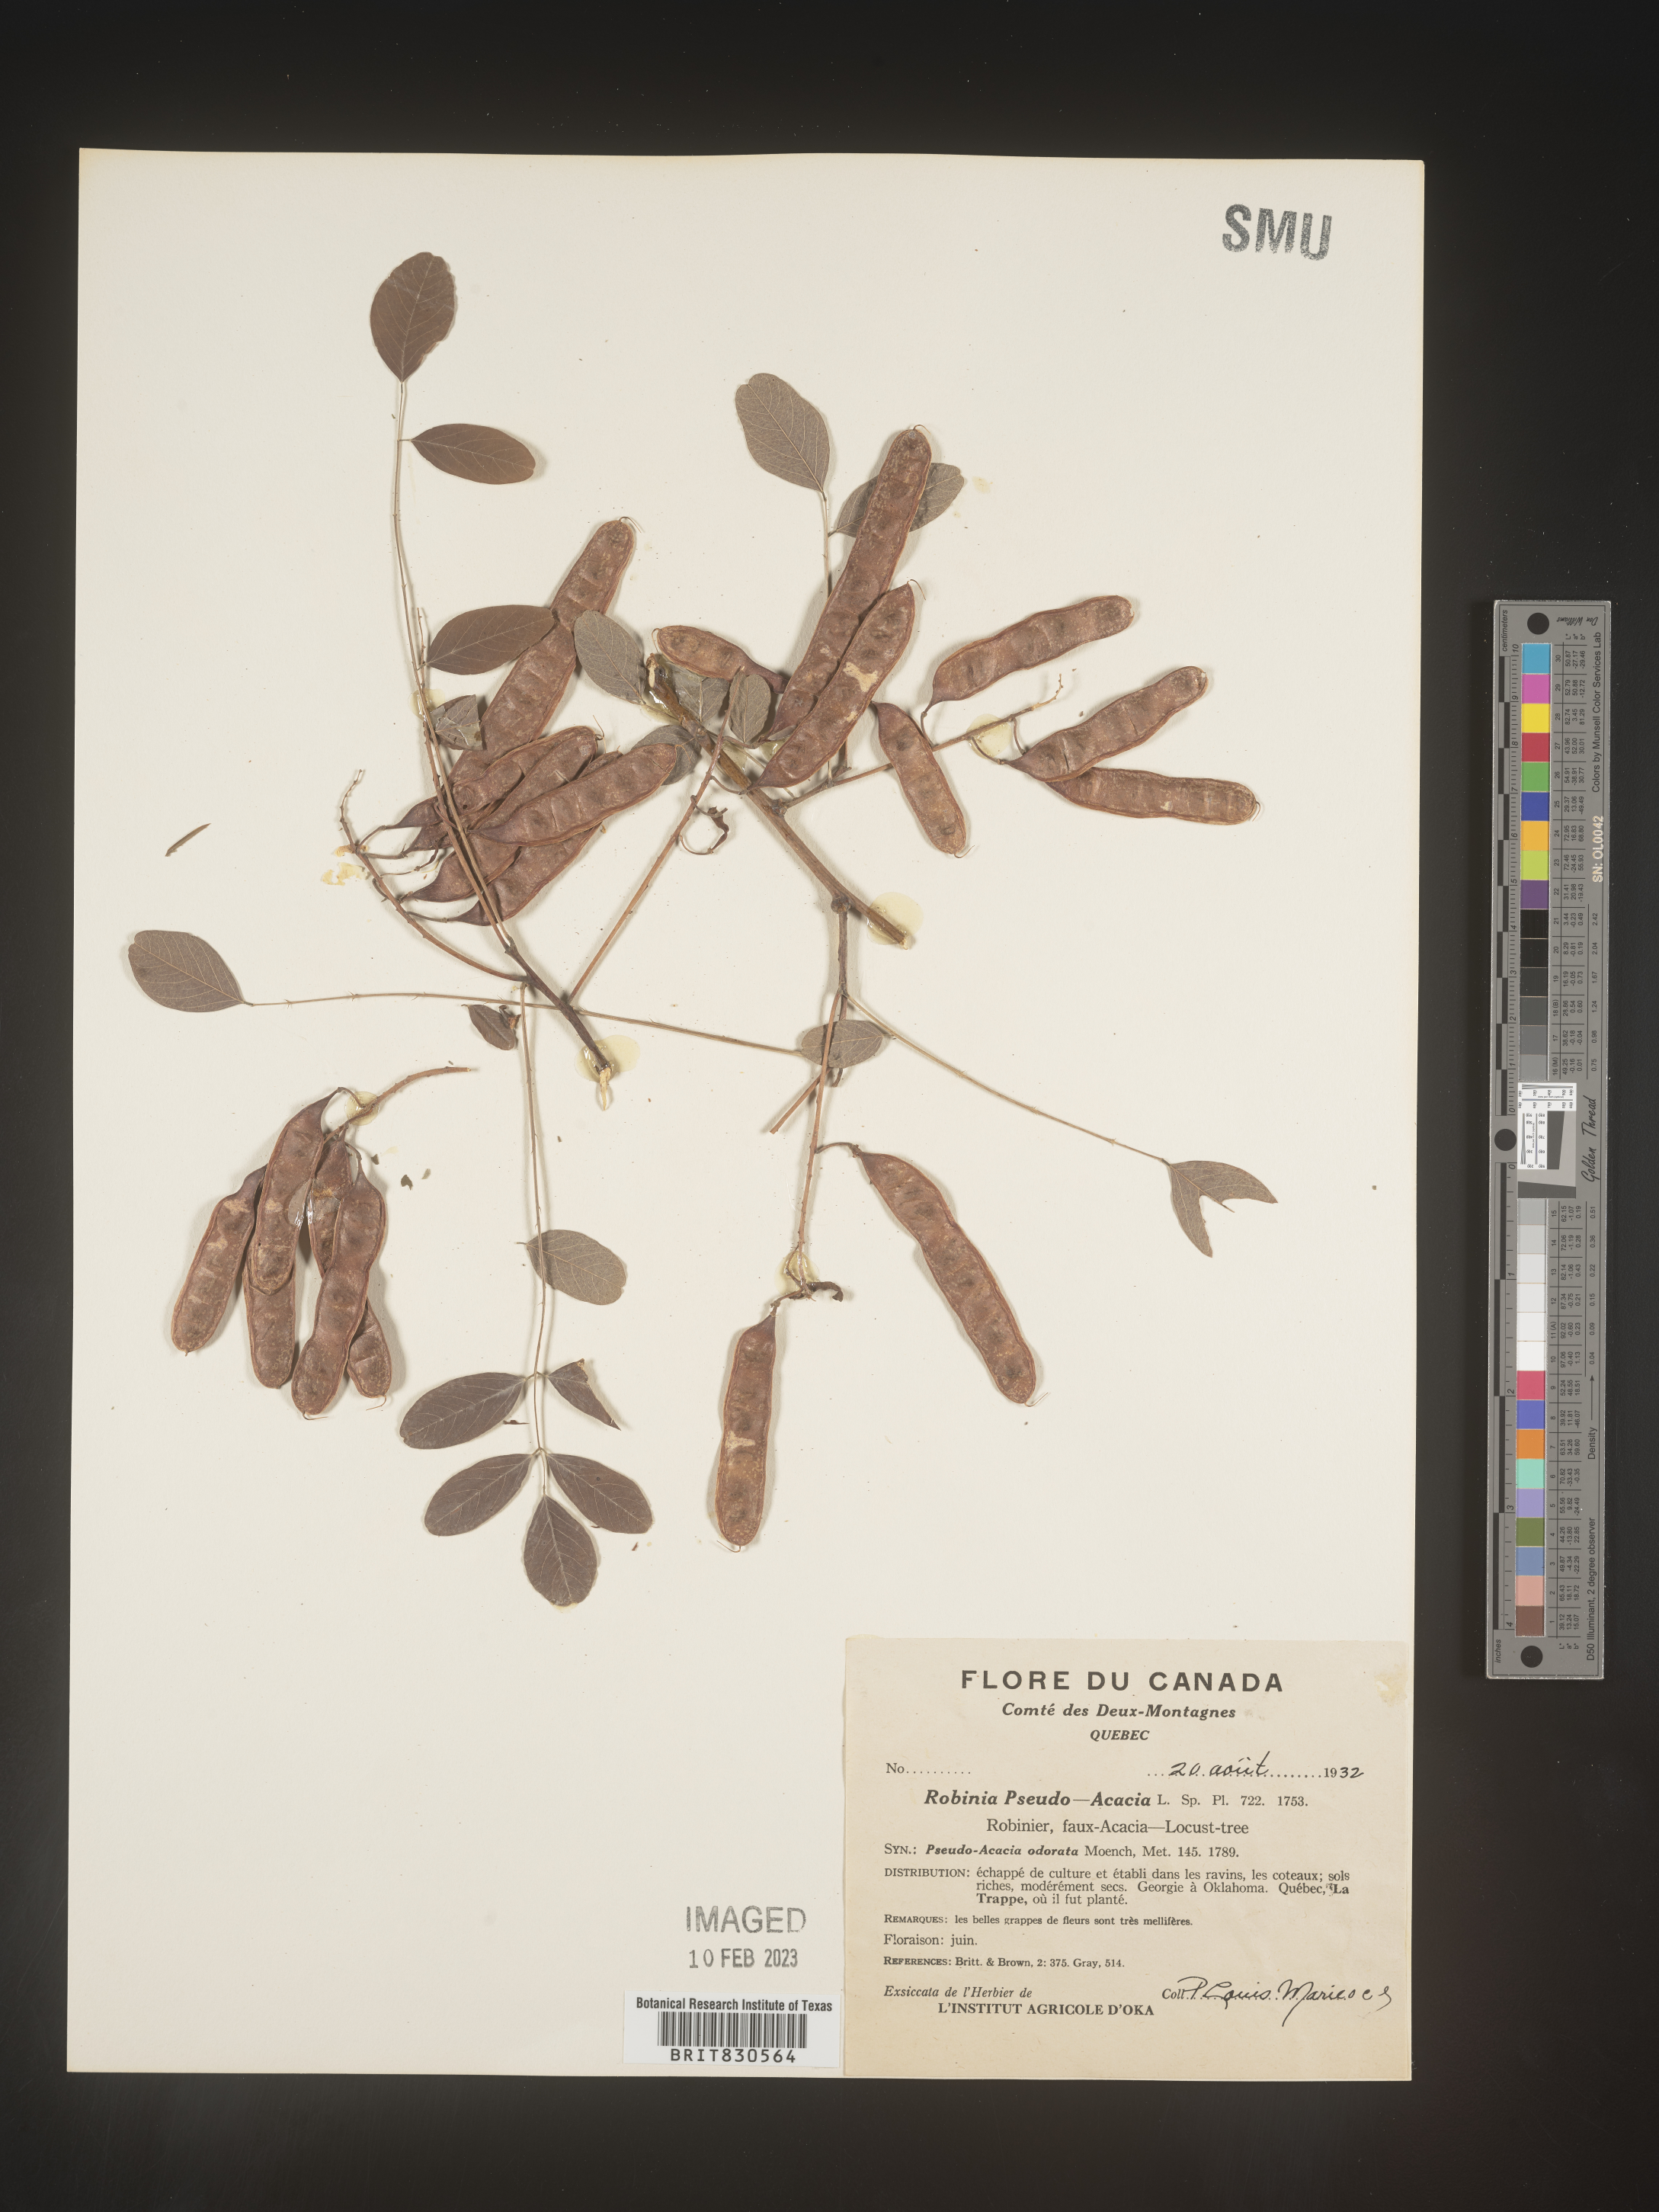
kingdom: Plantae
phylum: Tracheophyta
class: Magnoliopsida
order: Fabales
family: Fabaceae
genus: Robinia
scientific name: Robinia pseudoacacia
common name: Black locust
